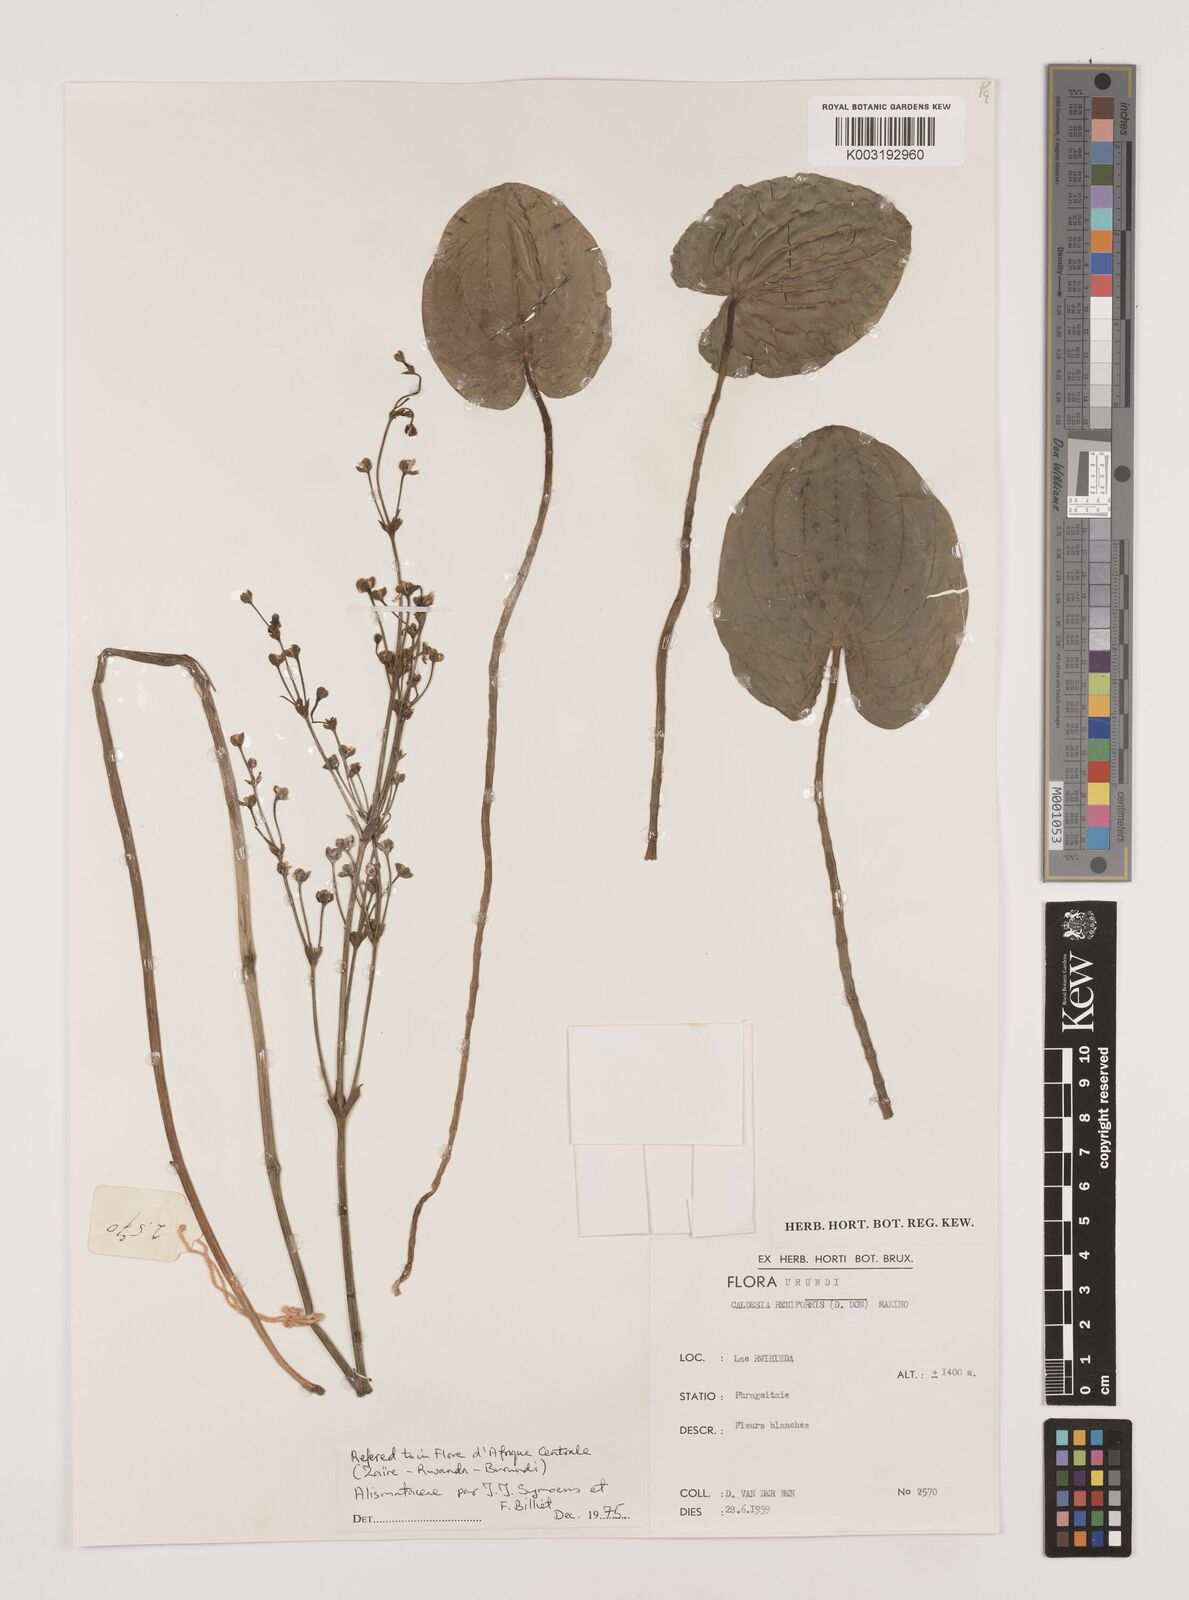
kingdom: Plantae
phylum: Tracheophyta
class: Liliopsida
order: Alismatales
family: Alismataceae
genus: Caldesia
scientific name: Caldesia parnassifolia
